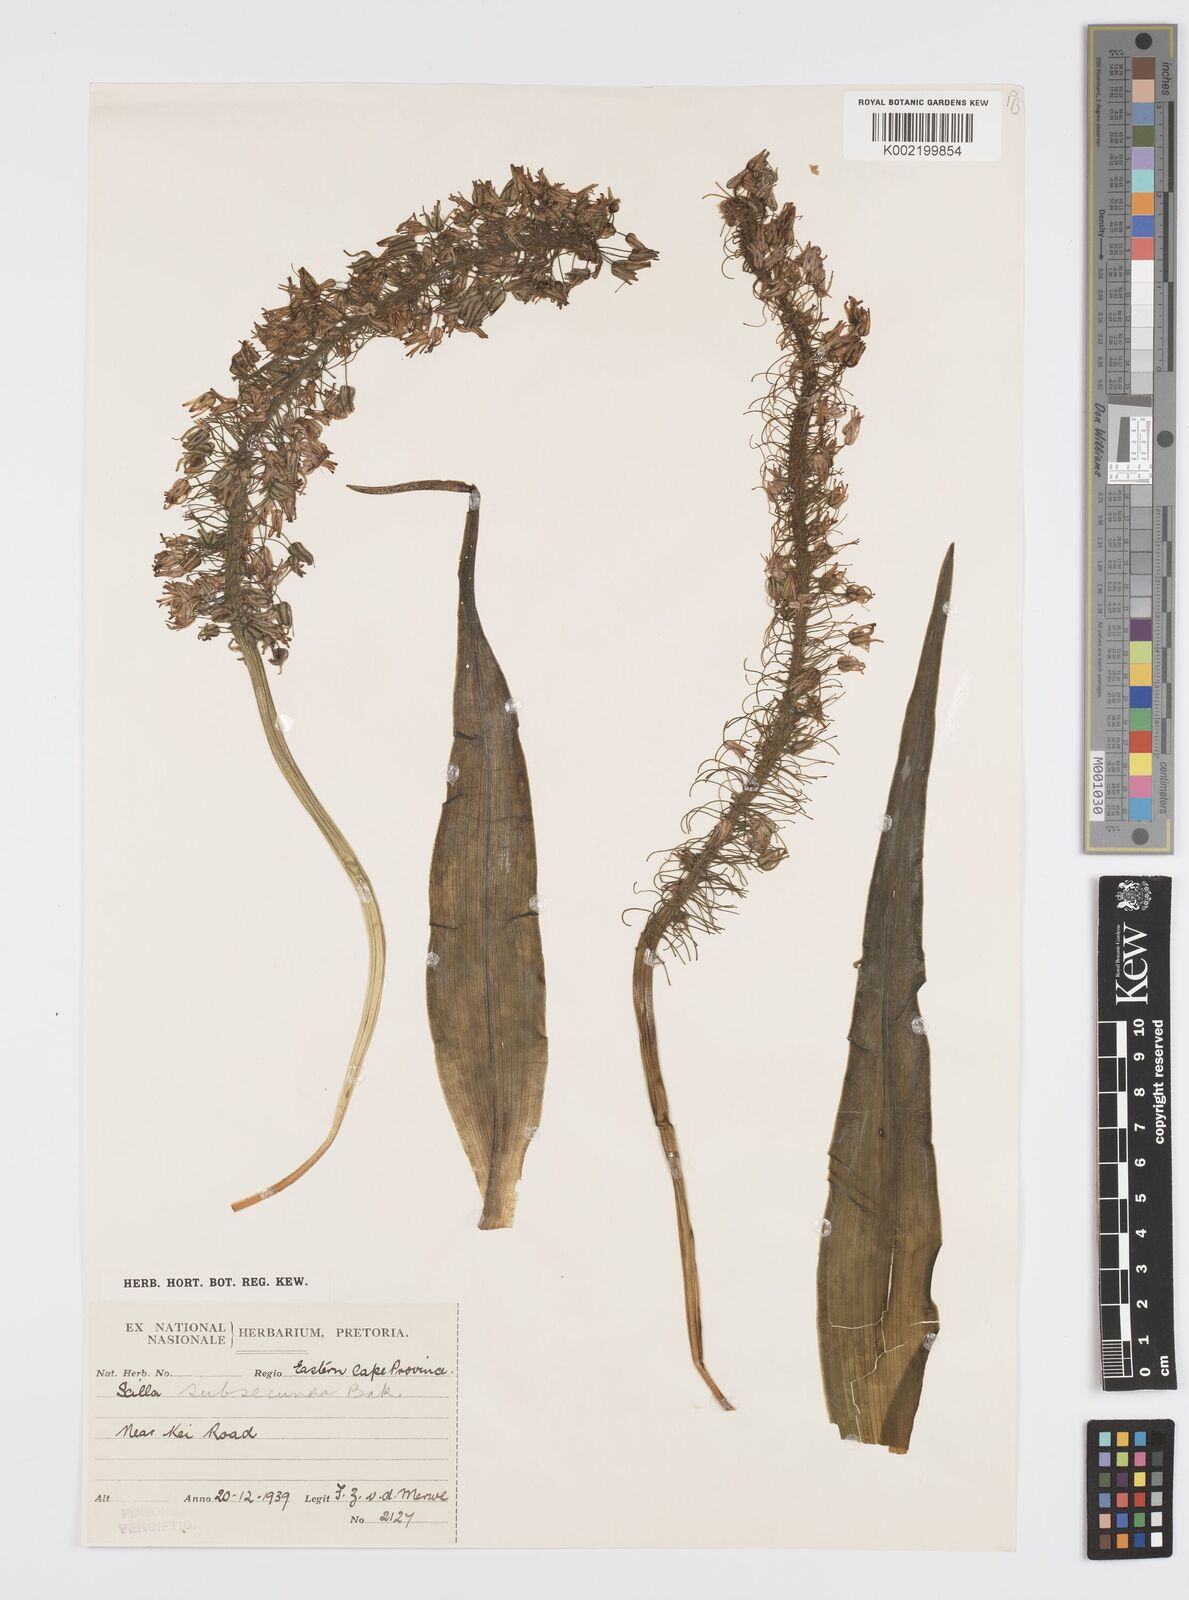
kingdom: Plantae
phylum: Tracheophyta
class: Liliopsida
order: Asparagales
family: Asparagaceae
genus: Ledebouria
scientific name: Ledebouria floribunda
